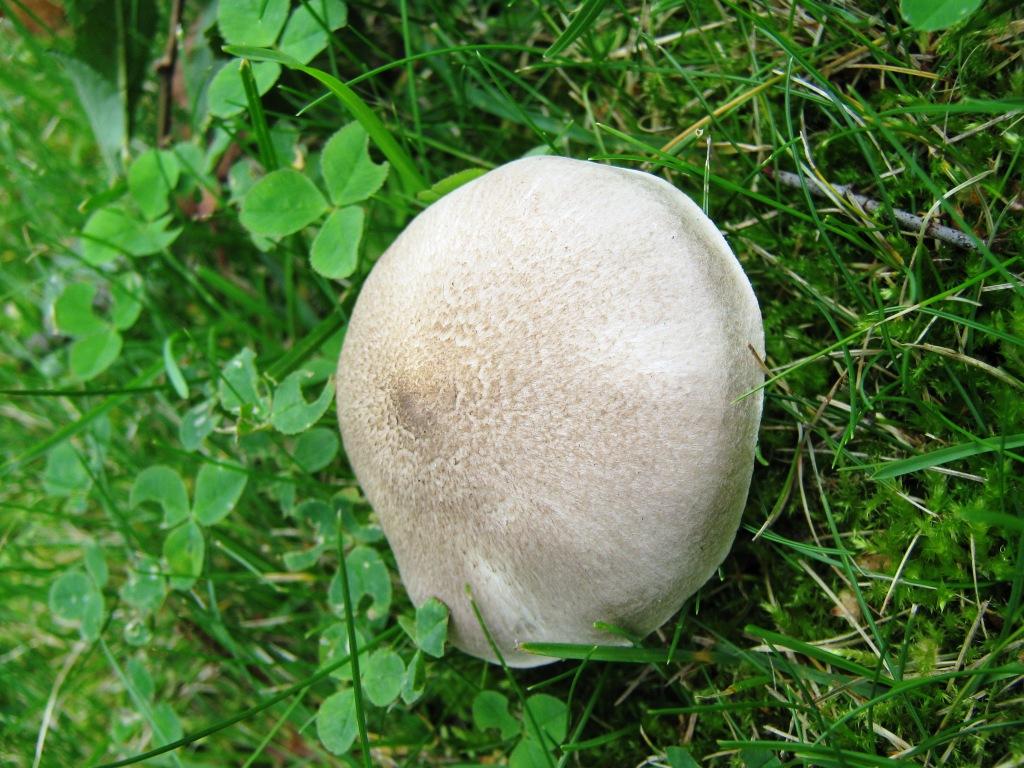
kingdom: Fungi
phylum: Basidiomycota
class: Agaricomycetes
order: Agaricales
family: Tricholomataceae
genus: Tricholoma
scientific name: Tricholoma argyraceum
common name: spids ridderhat
